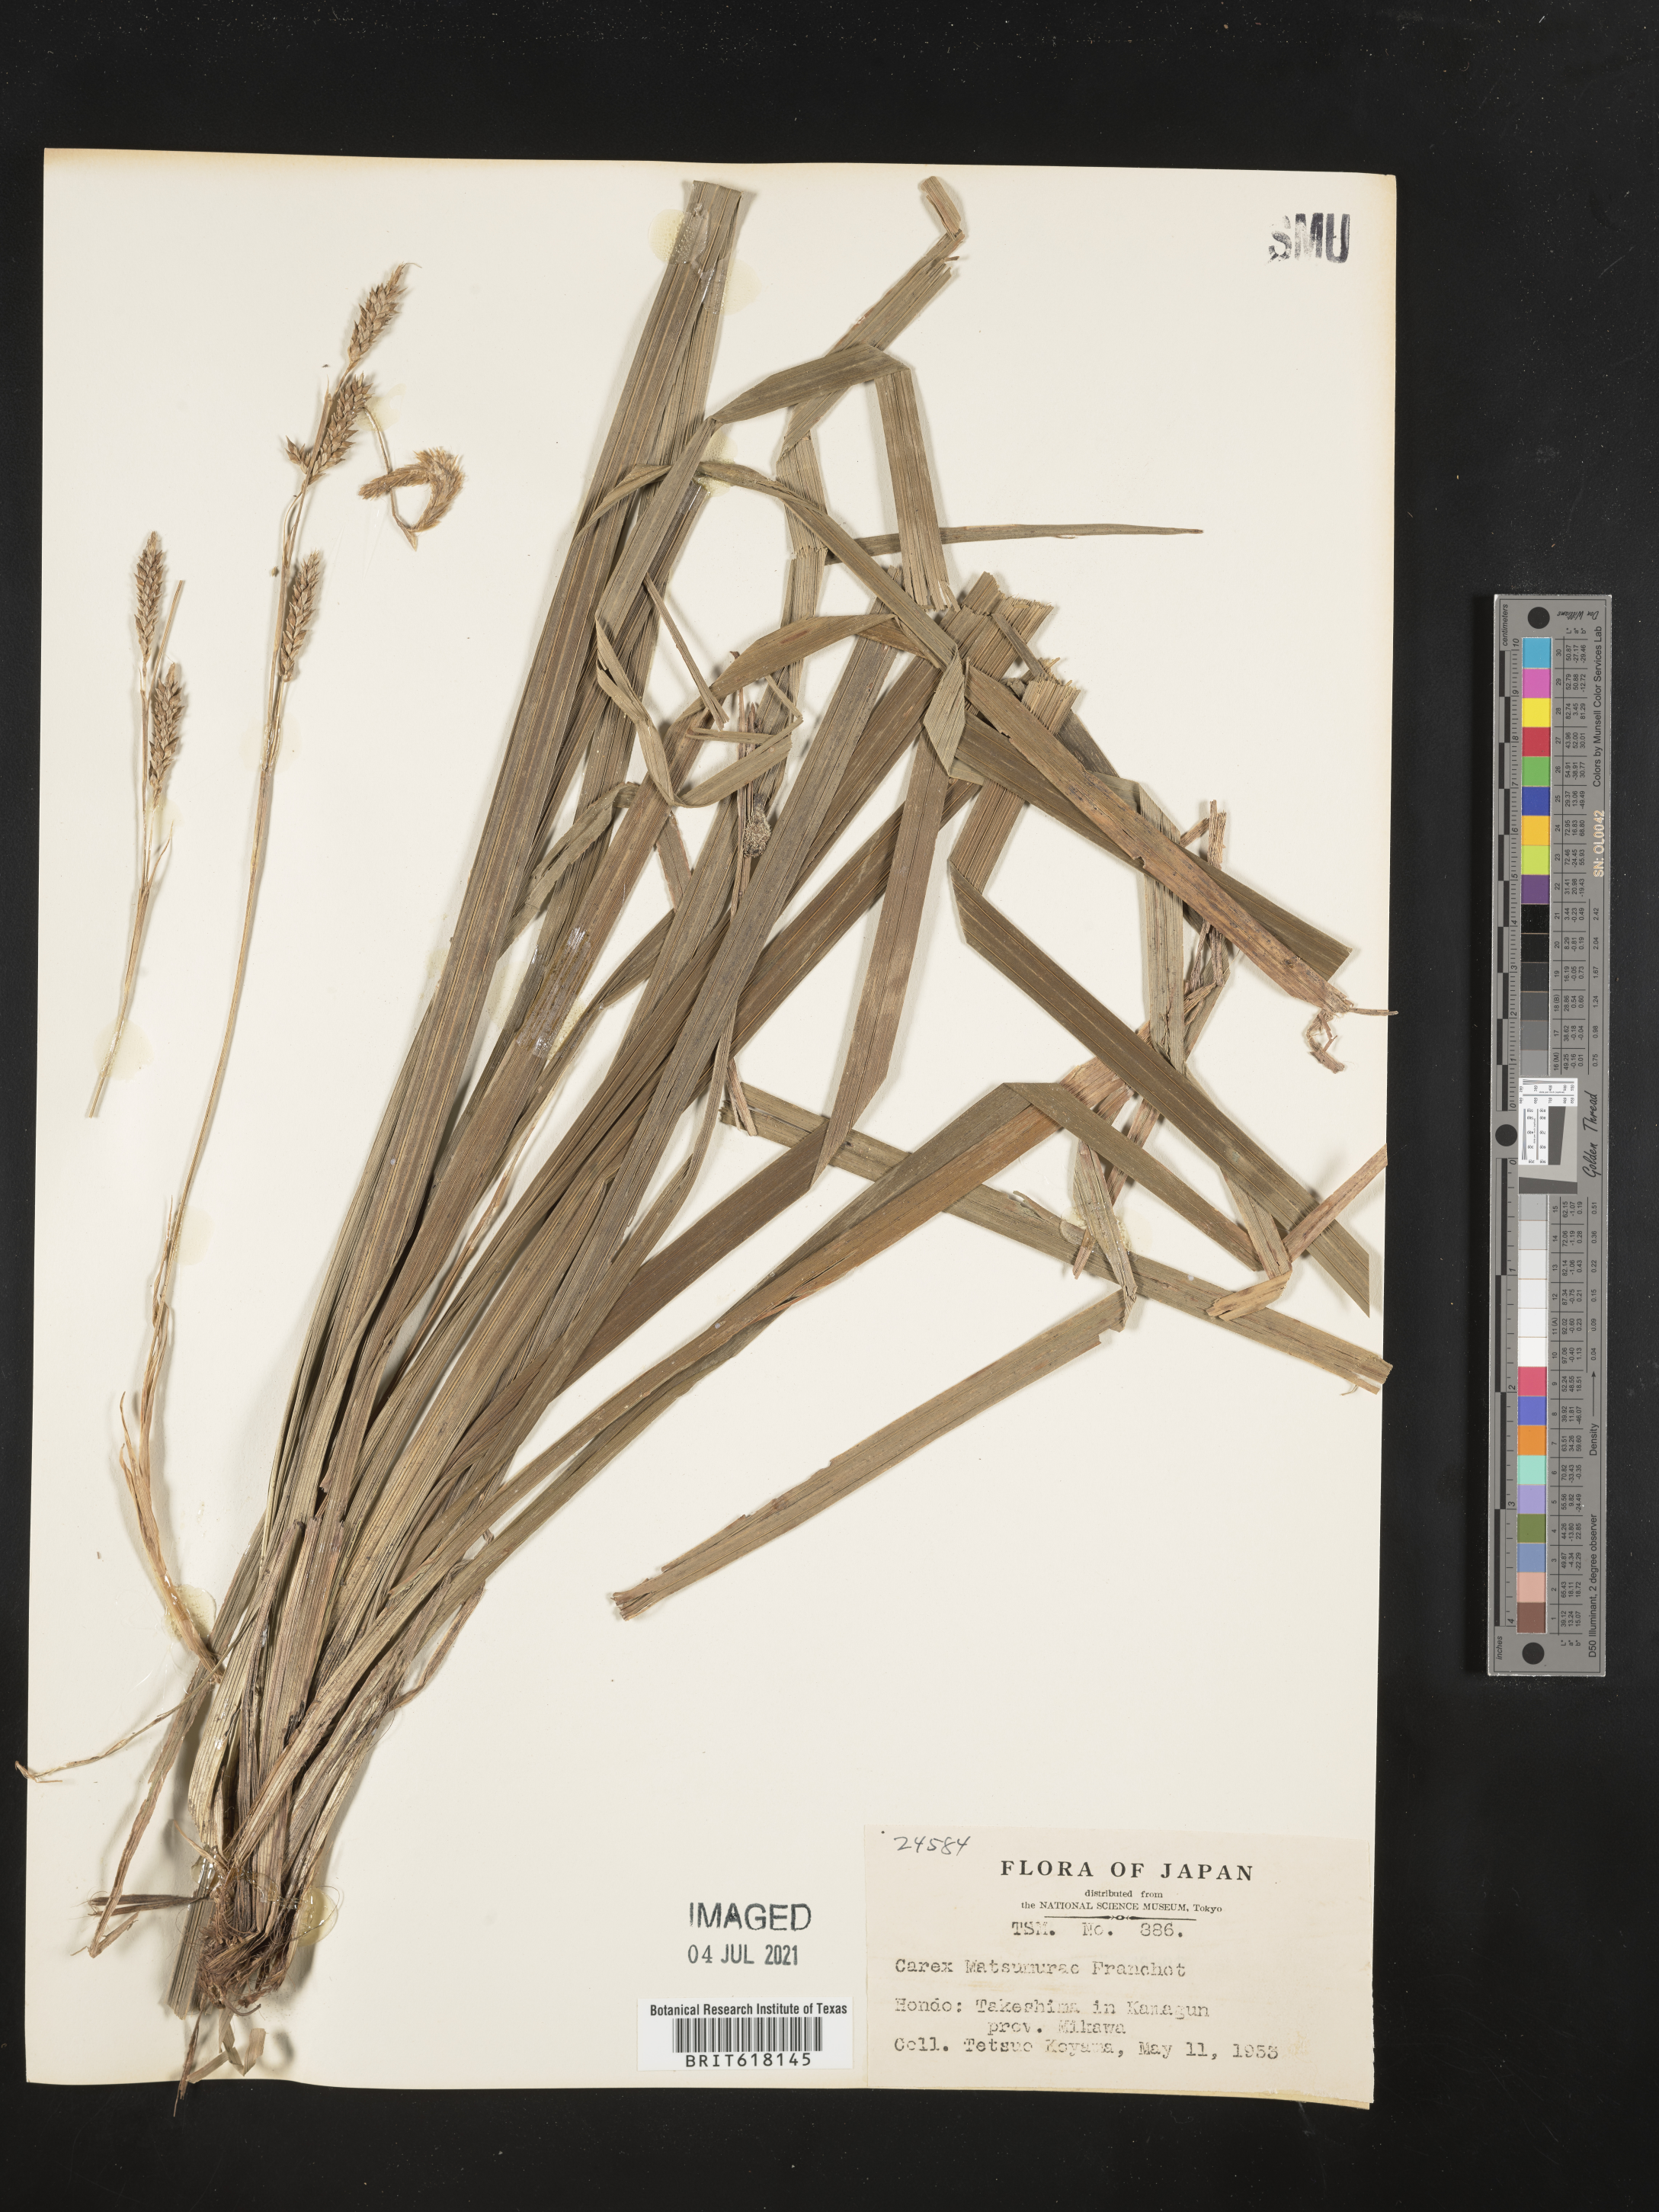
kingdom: Plantae
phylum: Tracheophyta
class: Liliopsida
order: Poales
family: Cyperaceae
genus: Carex
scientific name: Carex matsumurae
